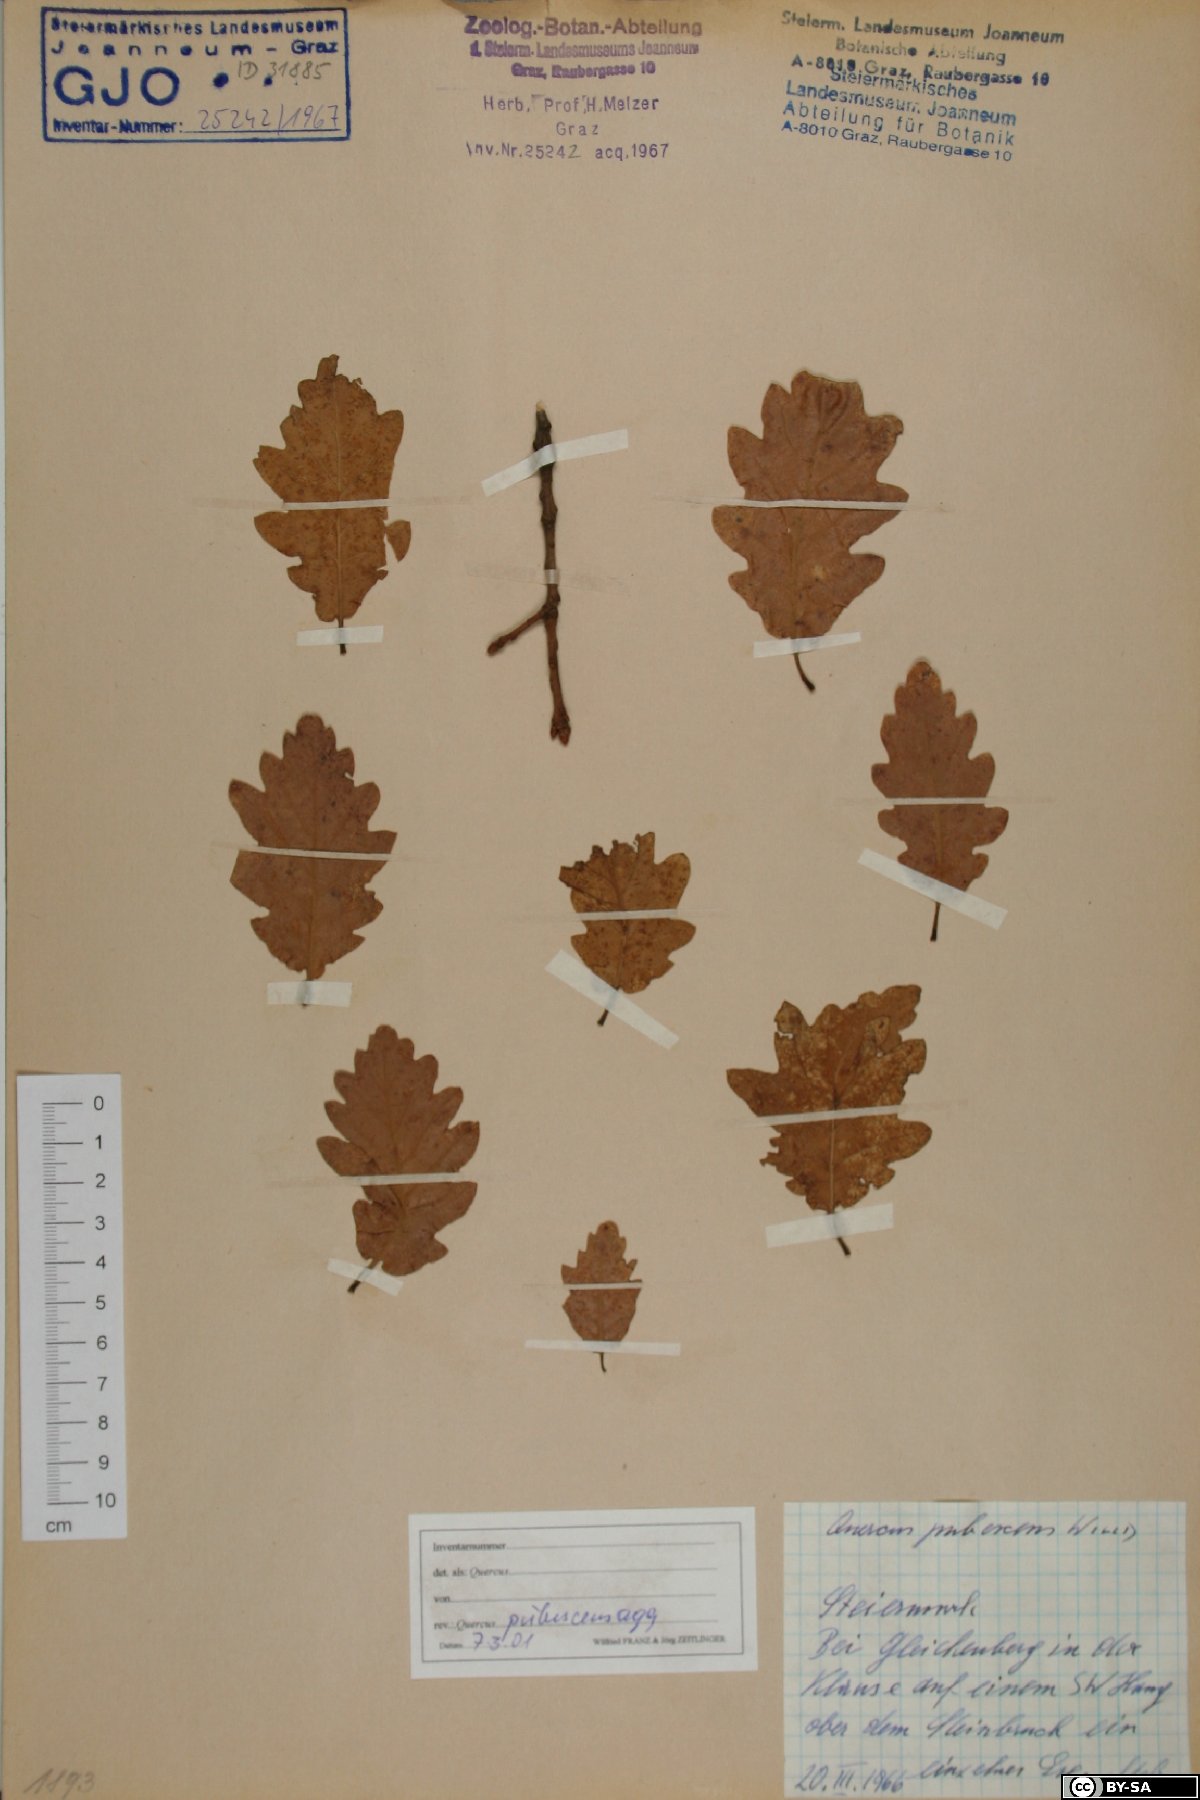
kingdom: Plantae
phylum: Tracheophyta
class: Magnoliopsida
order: Fagales
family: Fagaceae
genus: Quercus
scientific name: Quercus pubescens
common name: Downy oak
